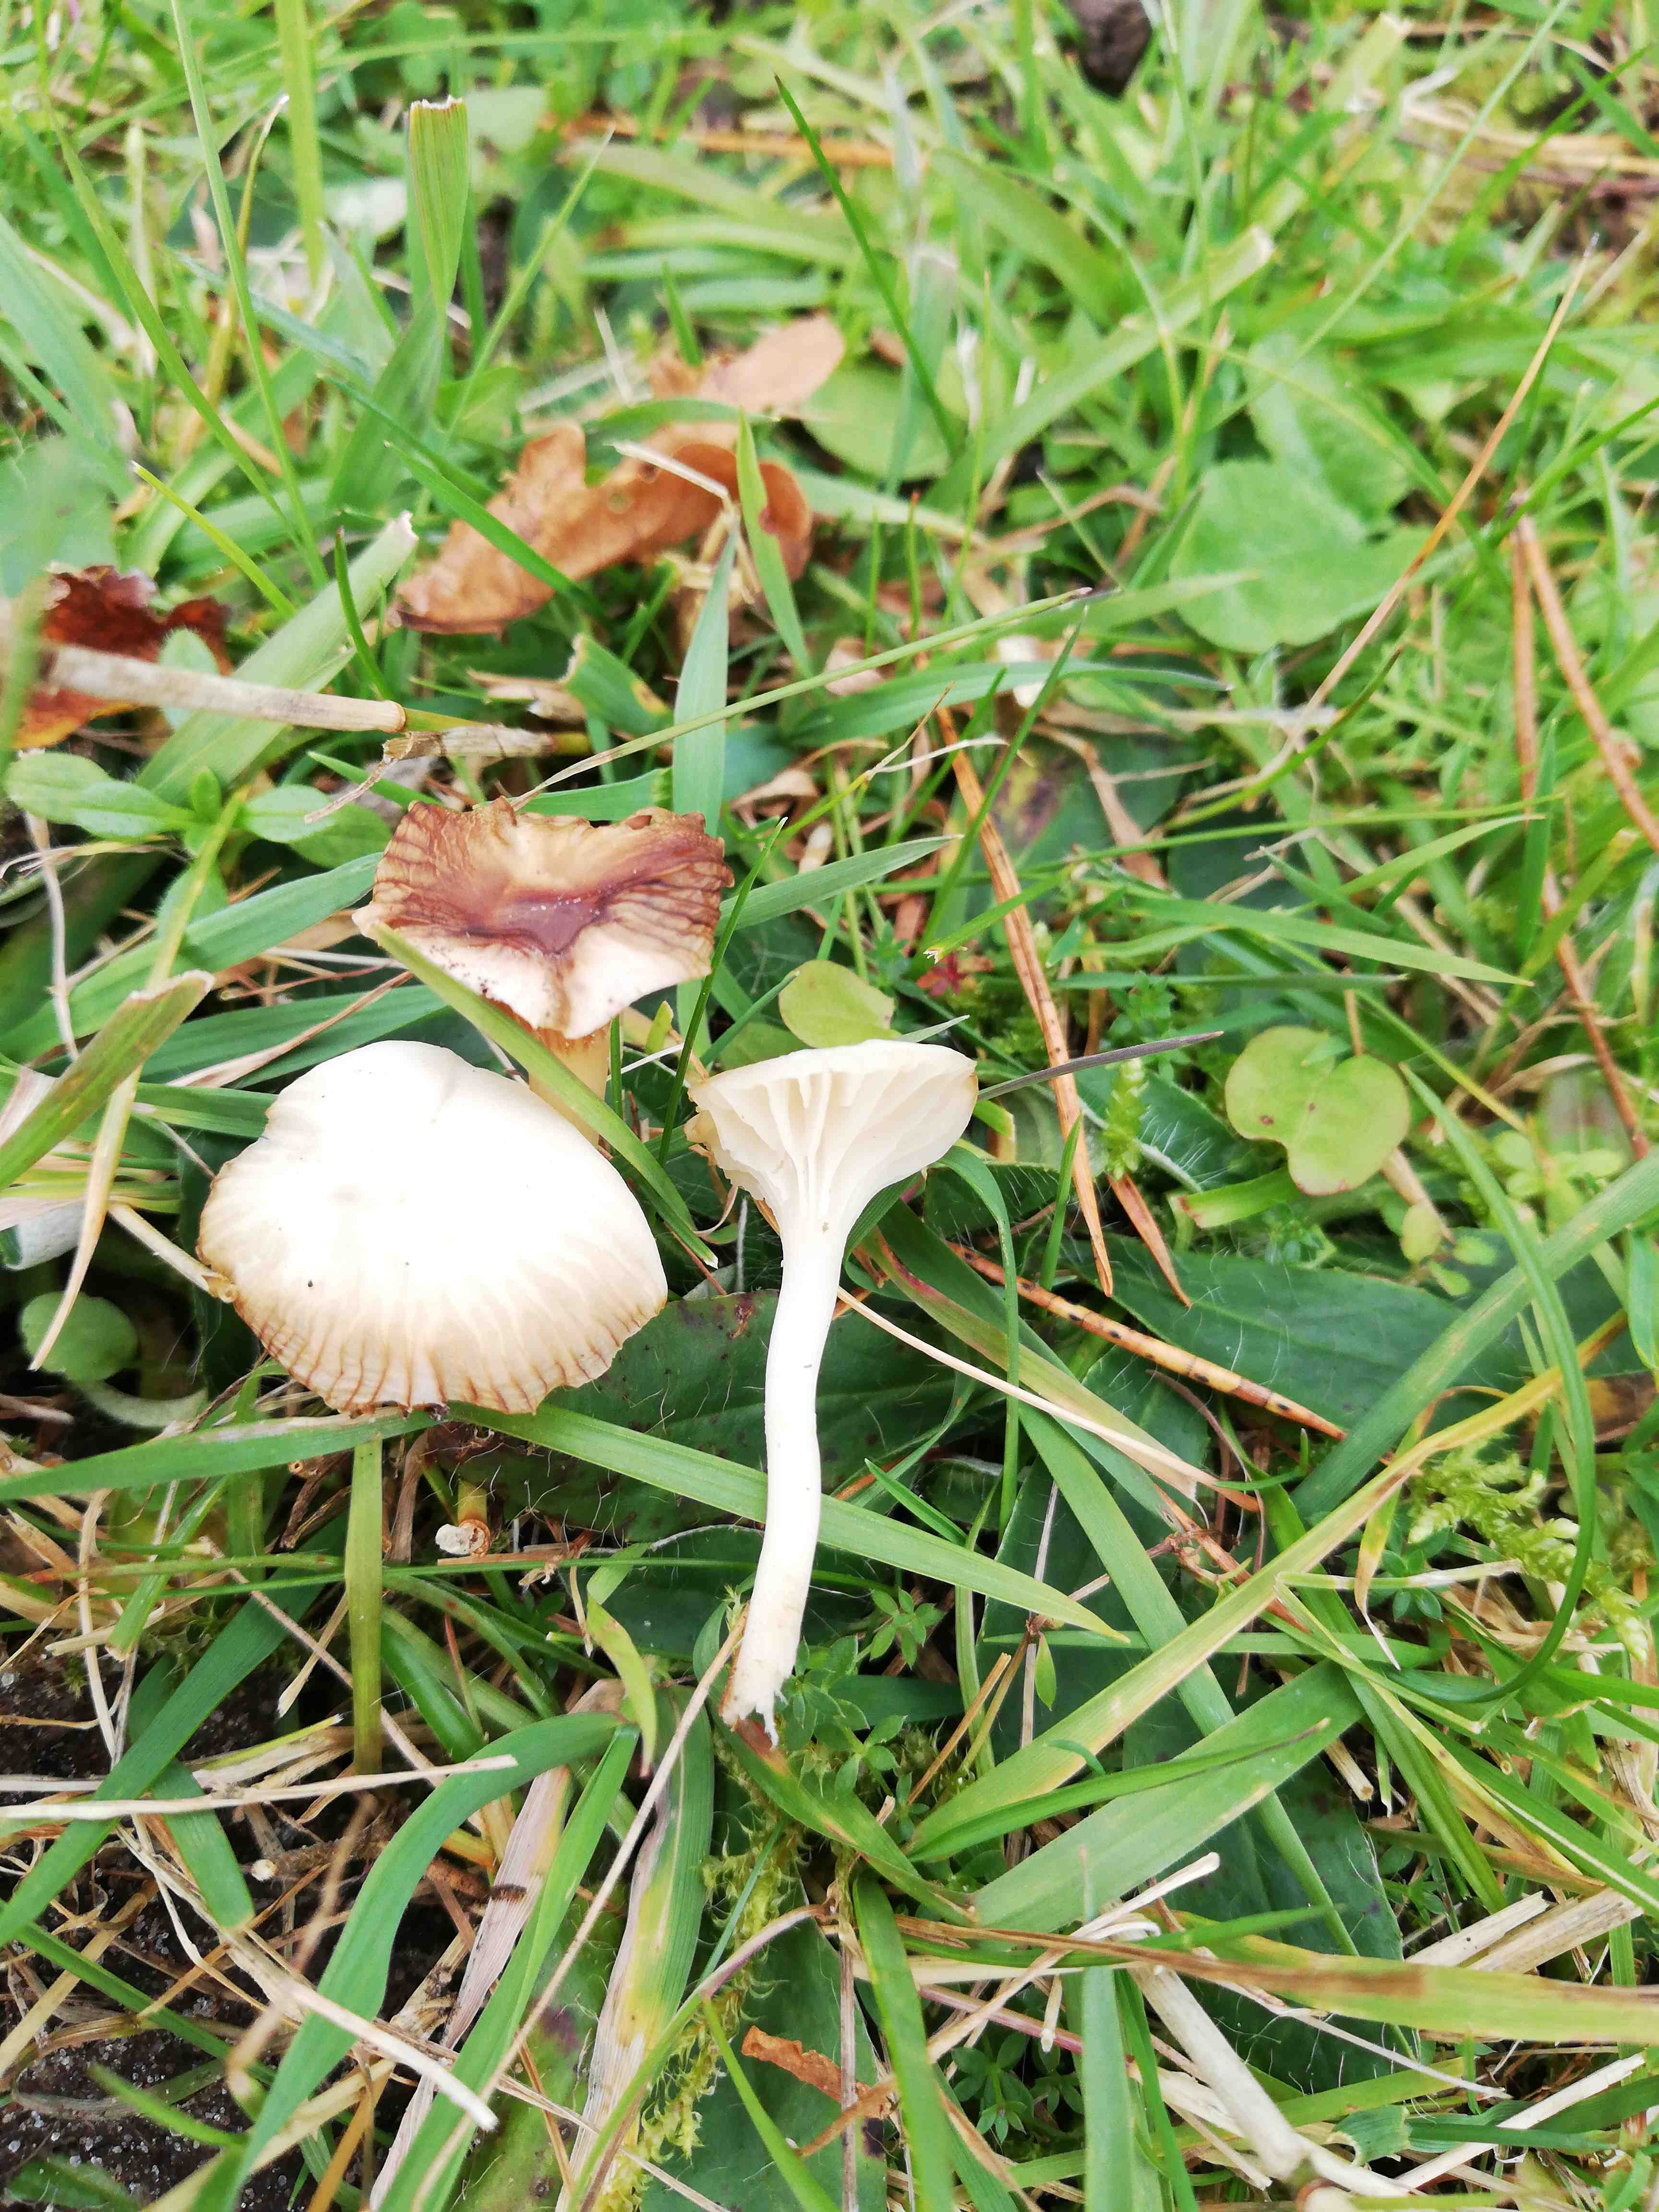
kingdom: Fungi
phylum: Basidiomycota
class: Agaricomycetes
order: Agaricales
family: Hygrophoraceae
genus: Cuphophyllus
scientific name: Cuphophyllus virgineus
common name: snehvid vokshat
